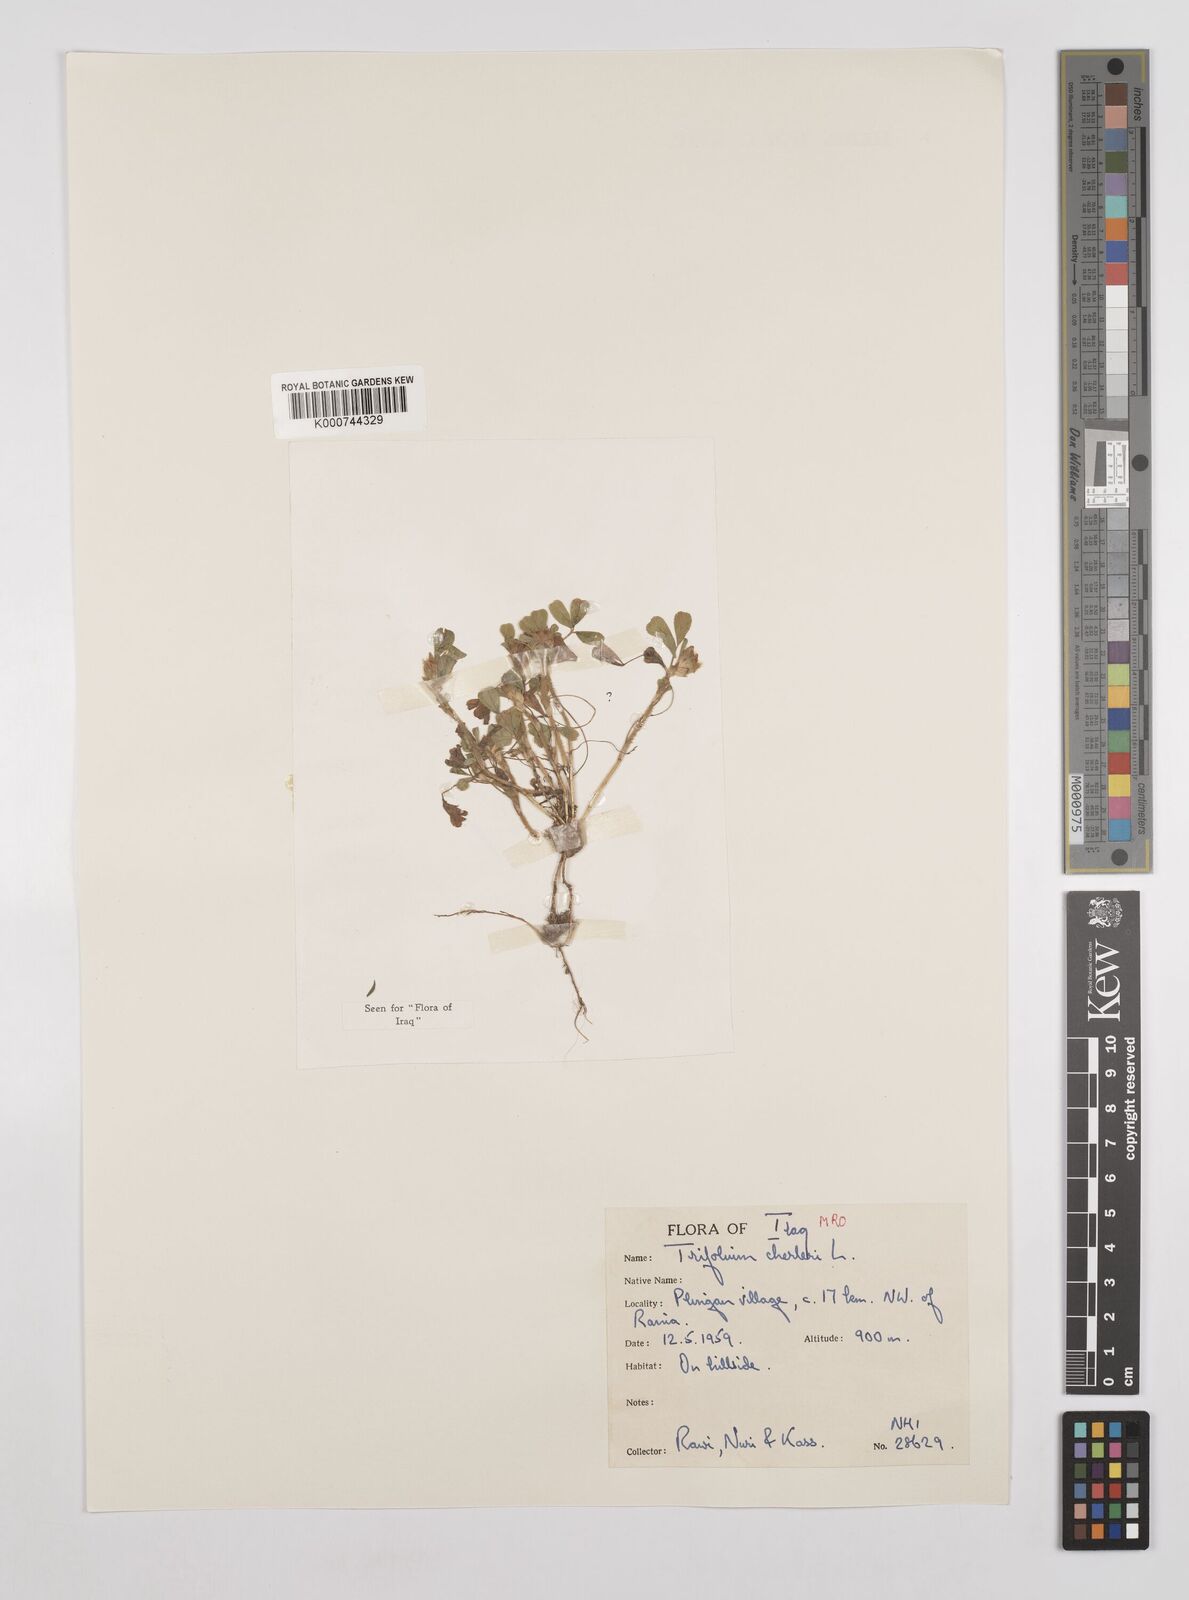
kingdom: Plantae
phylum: Tracheophyta
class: Magnoliopsida
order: Fabales
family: Fabaceae
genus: Trifolium
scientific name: Trifolium cherleri
